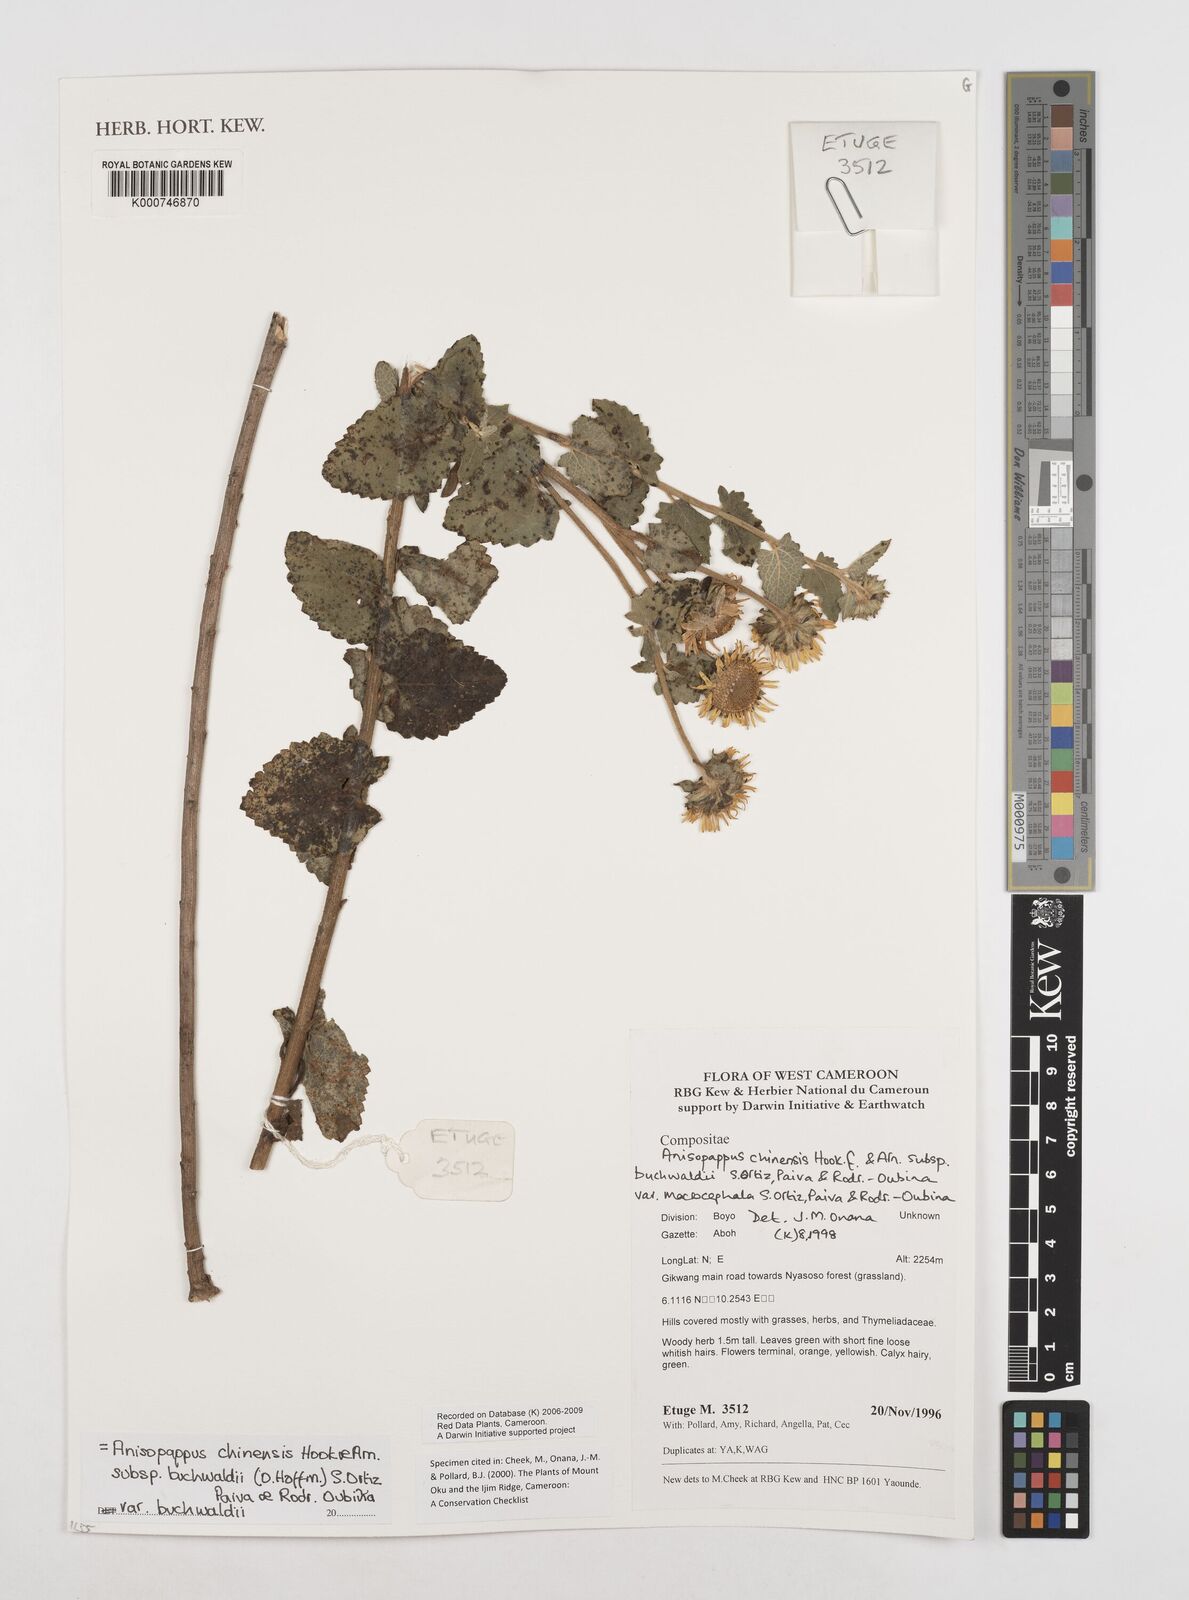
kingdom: Plantae
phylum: Tracheophyta
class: Magnoliopsida
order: Asterales
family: Asteraceae
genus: Anisopappus
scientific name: Anisopappus chinensis
